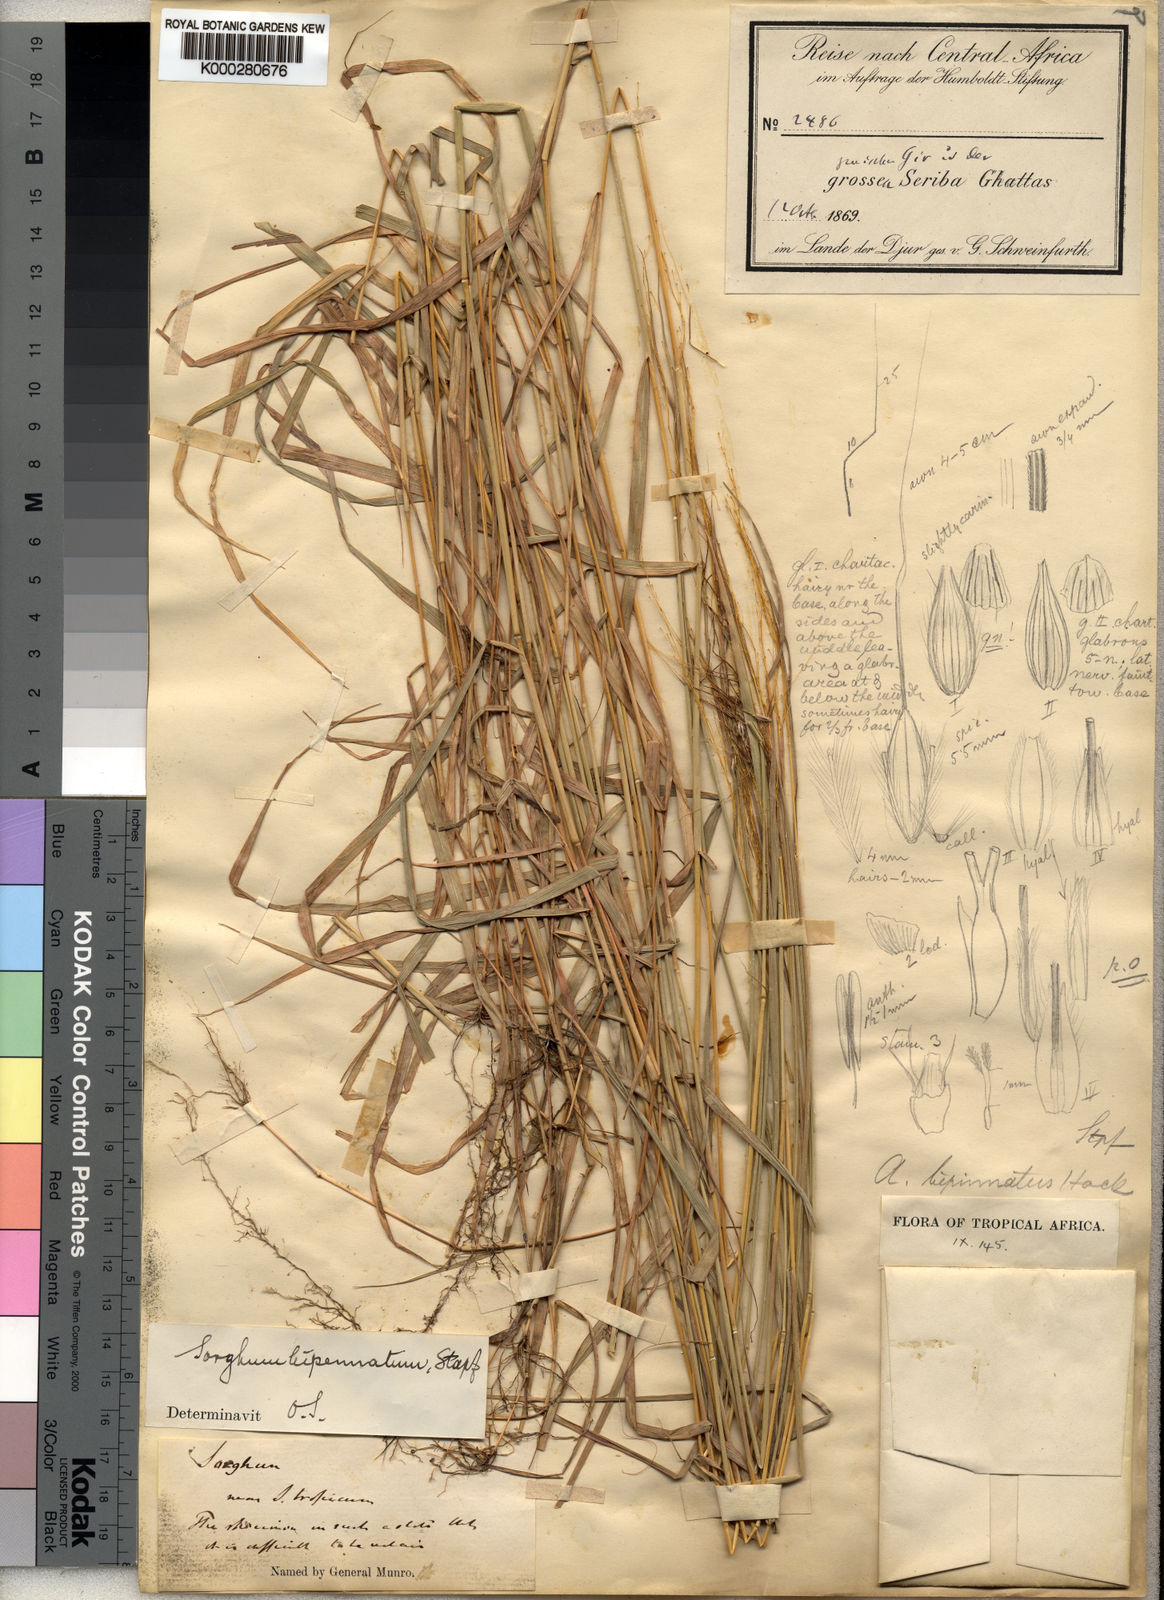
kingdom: Plantae
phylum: Tracheophyta
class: Liliopsida
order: Poales
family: Poaceae
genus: Sorghastrum
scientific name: Sorghastrum incompletum
